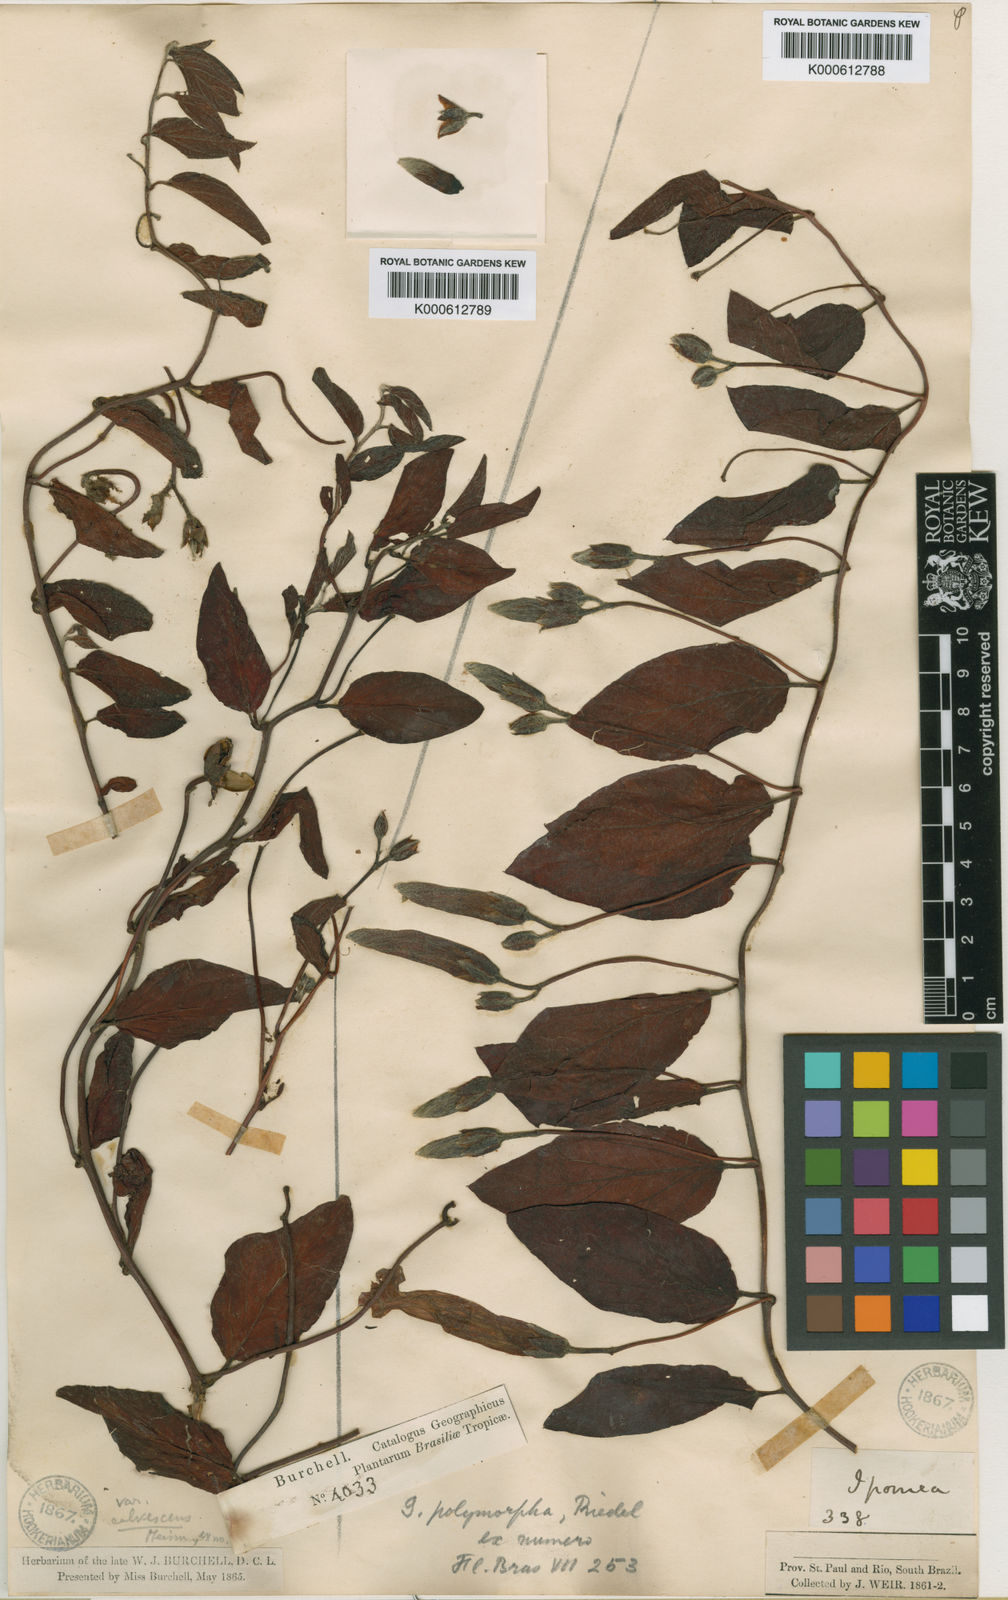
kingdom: Plantae
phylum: Tracheophyta
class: Magnoliopsida
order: Solanales
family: Convolvulaceae
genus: Ipomoea
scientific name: Ipomoea delphinioides
